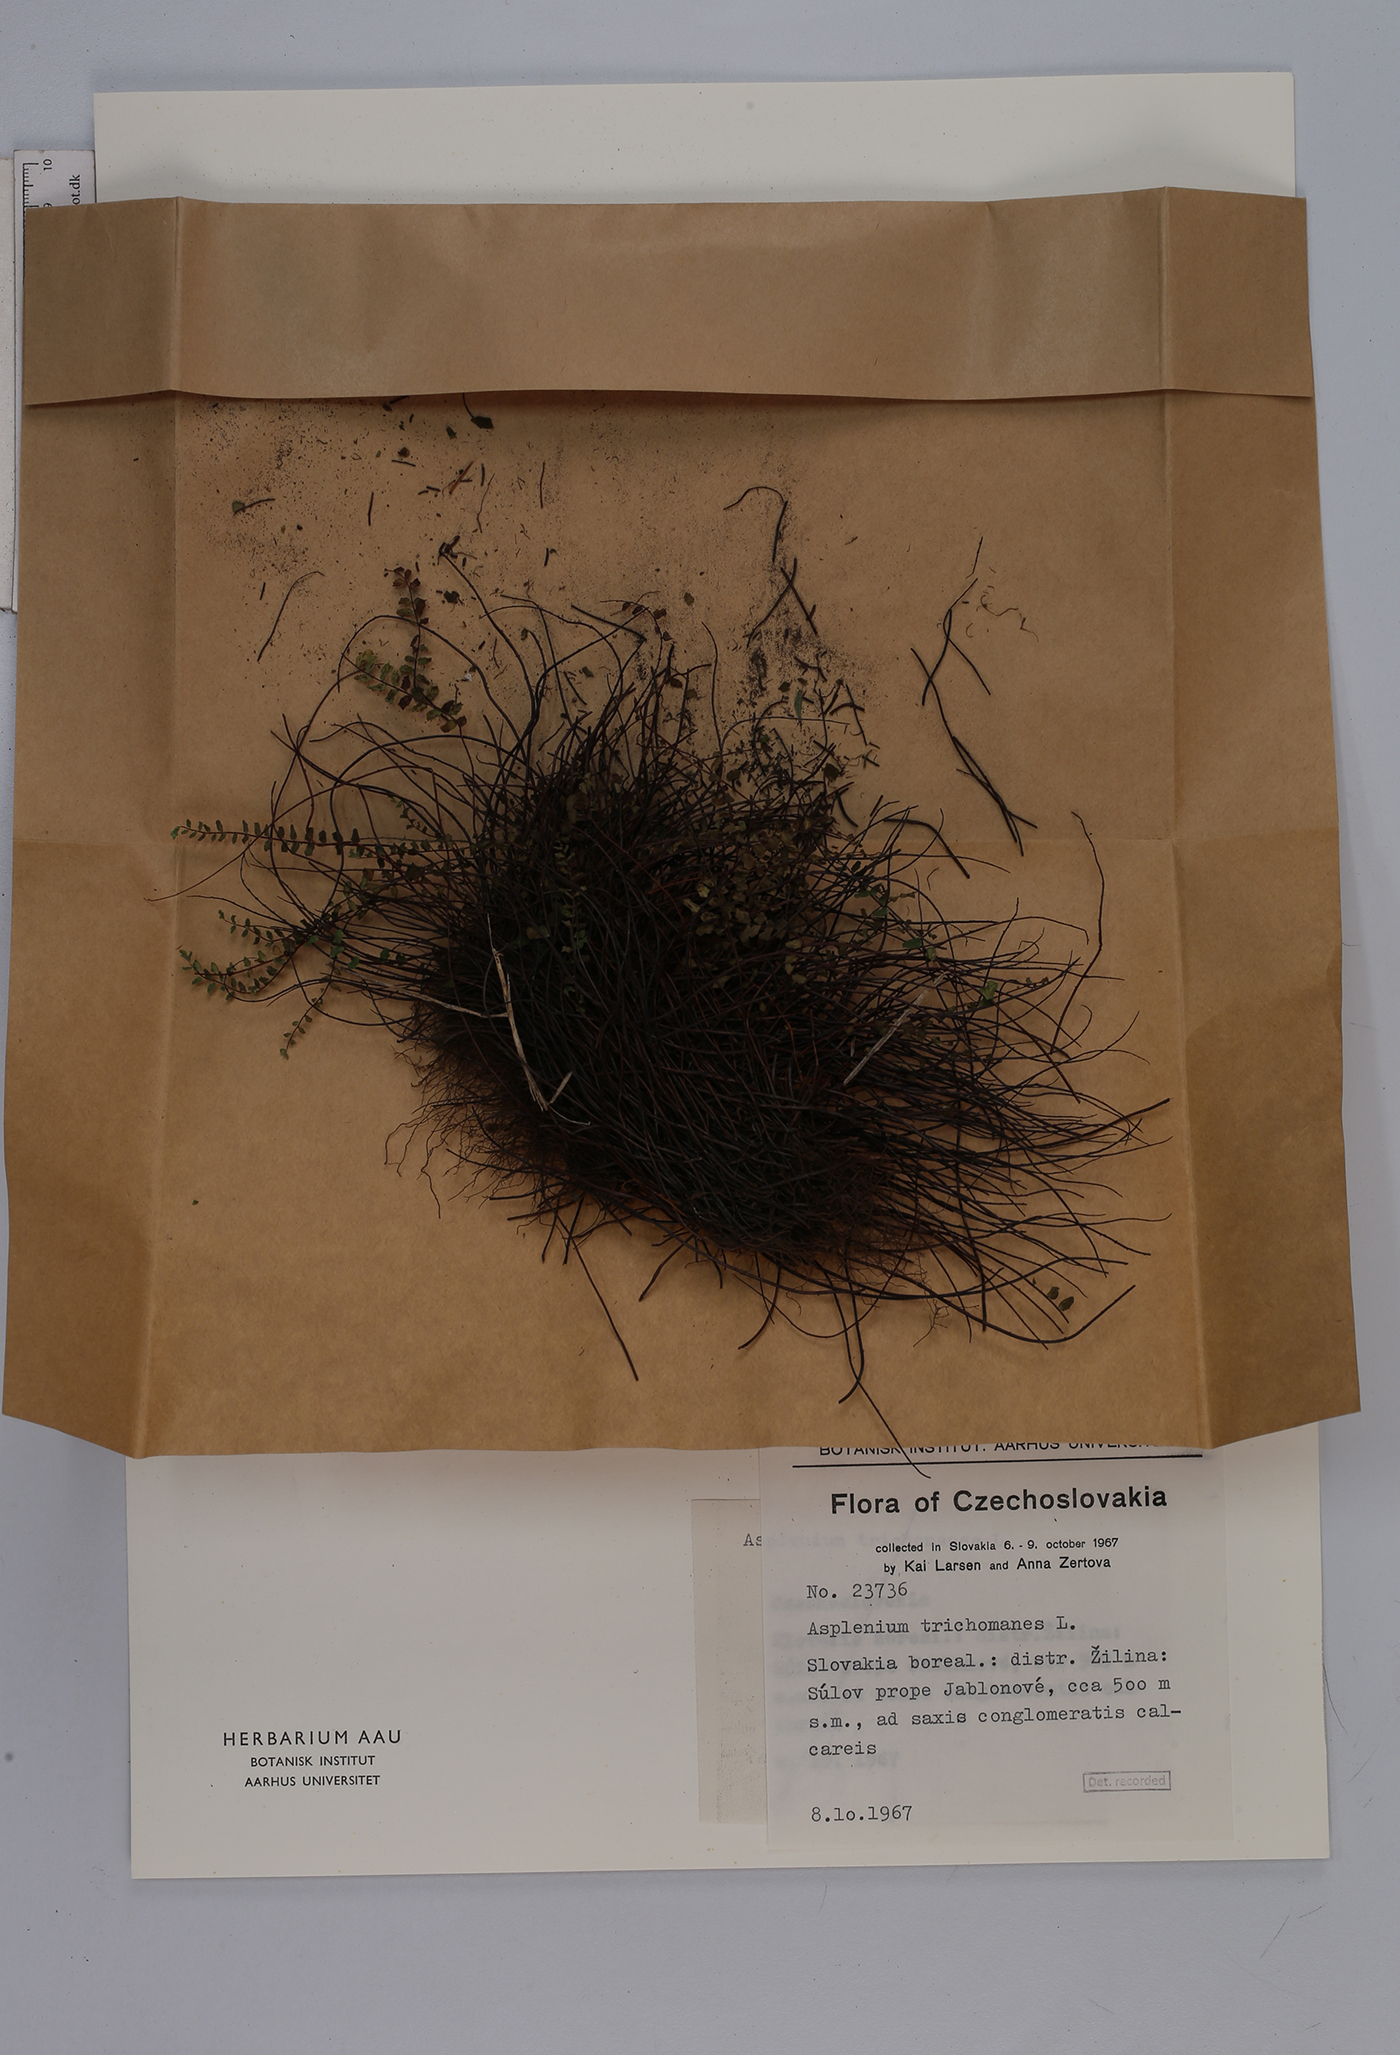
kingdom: Plantae
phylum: Tracheophyta
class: Polypodiopsida
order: Polypodiales
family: Aspleniaceae
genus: Asplenium
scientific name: Asplenium trichomanes
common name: Maidenhair spleenwort
